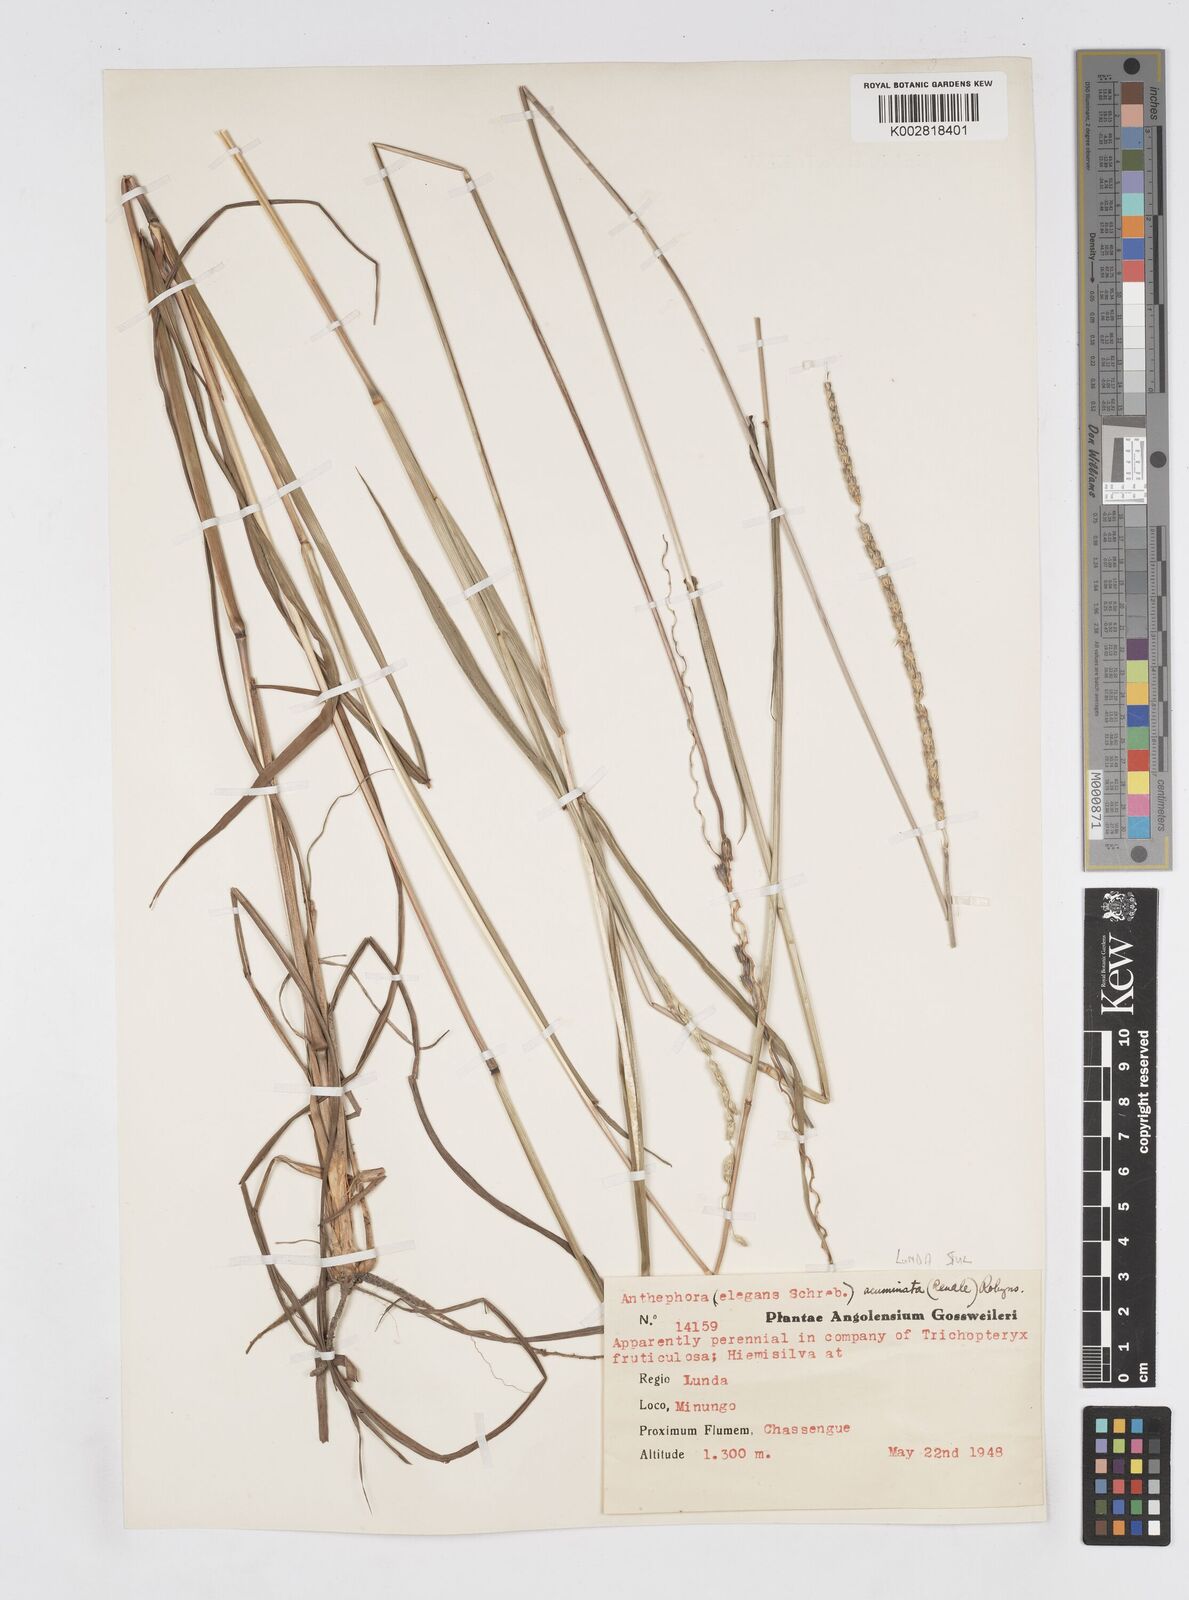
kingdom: Plantae
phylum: Tracheophyta
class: Liliopsida
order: Poales
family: Poaceae
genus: Anthephora
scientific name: Anthephora elongata
